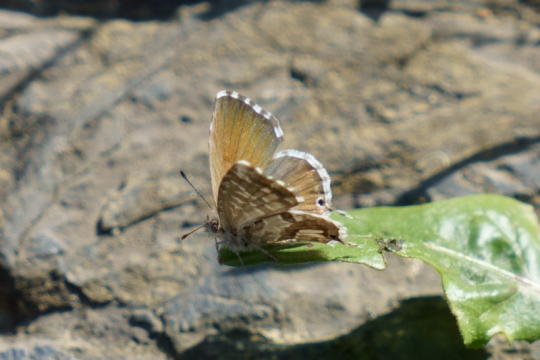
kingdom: Animalia
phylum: Arthropoda
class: Insecta
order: Lepidoptera
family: Lycaenidae
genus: Cacyreus
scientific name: Cacyreus marshalli
